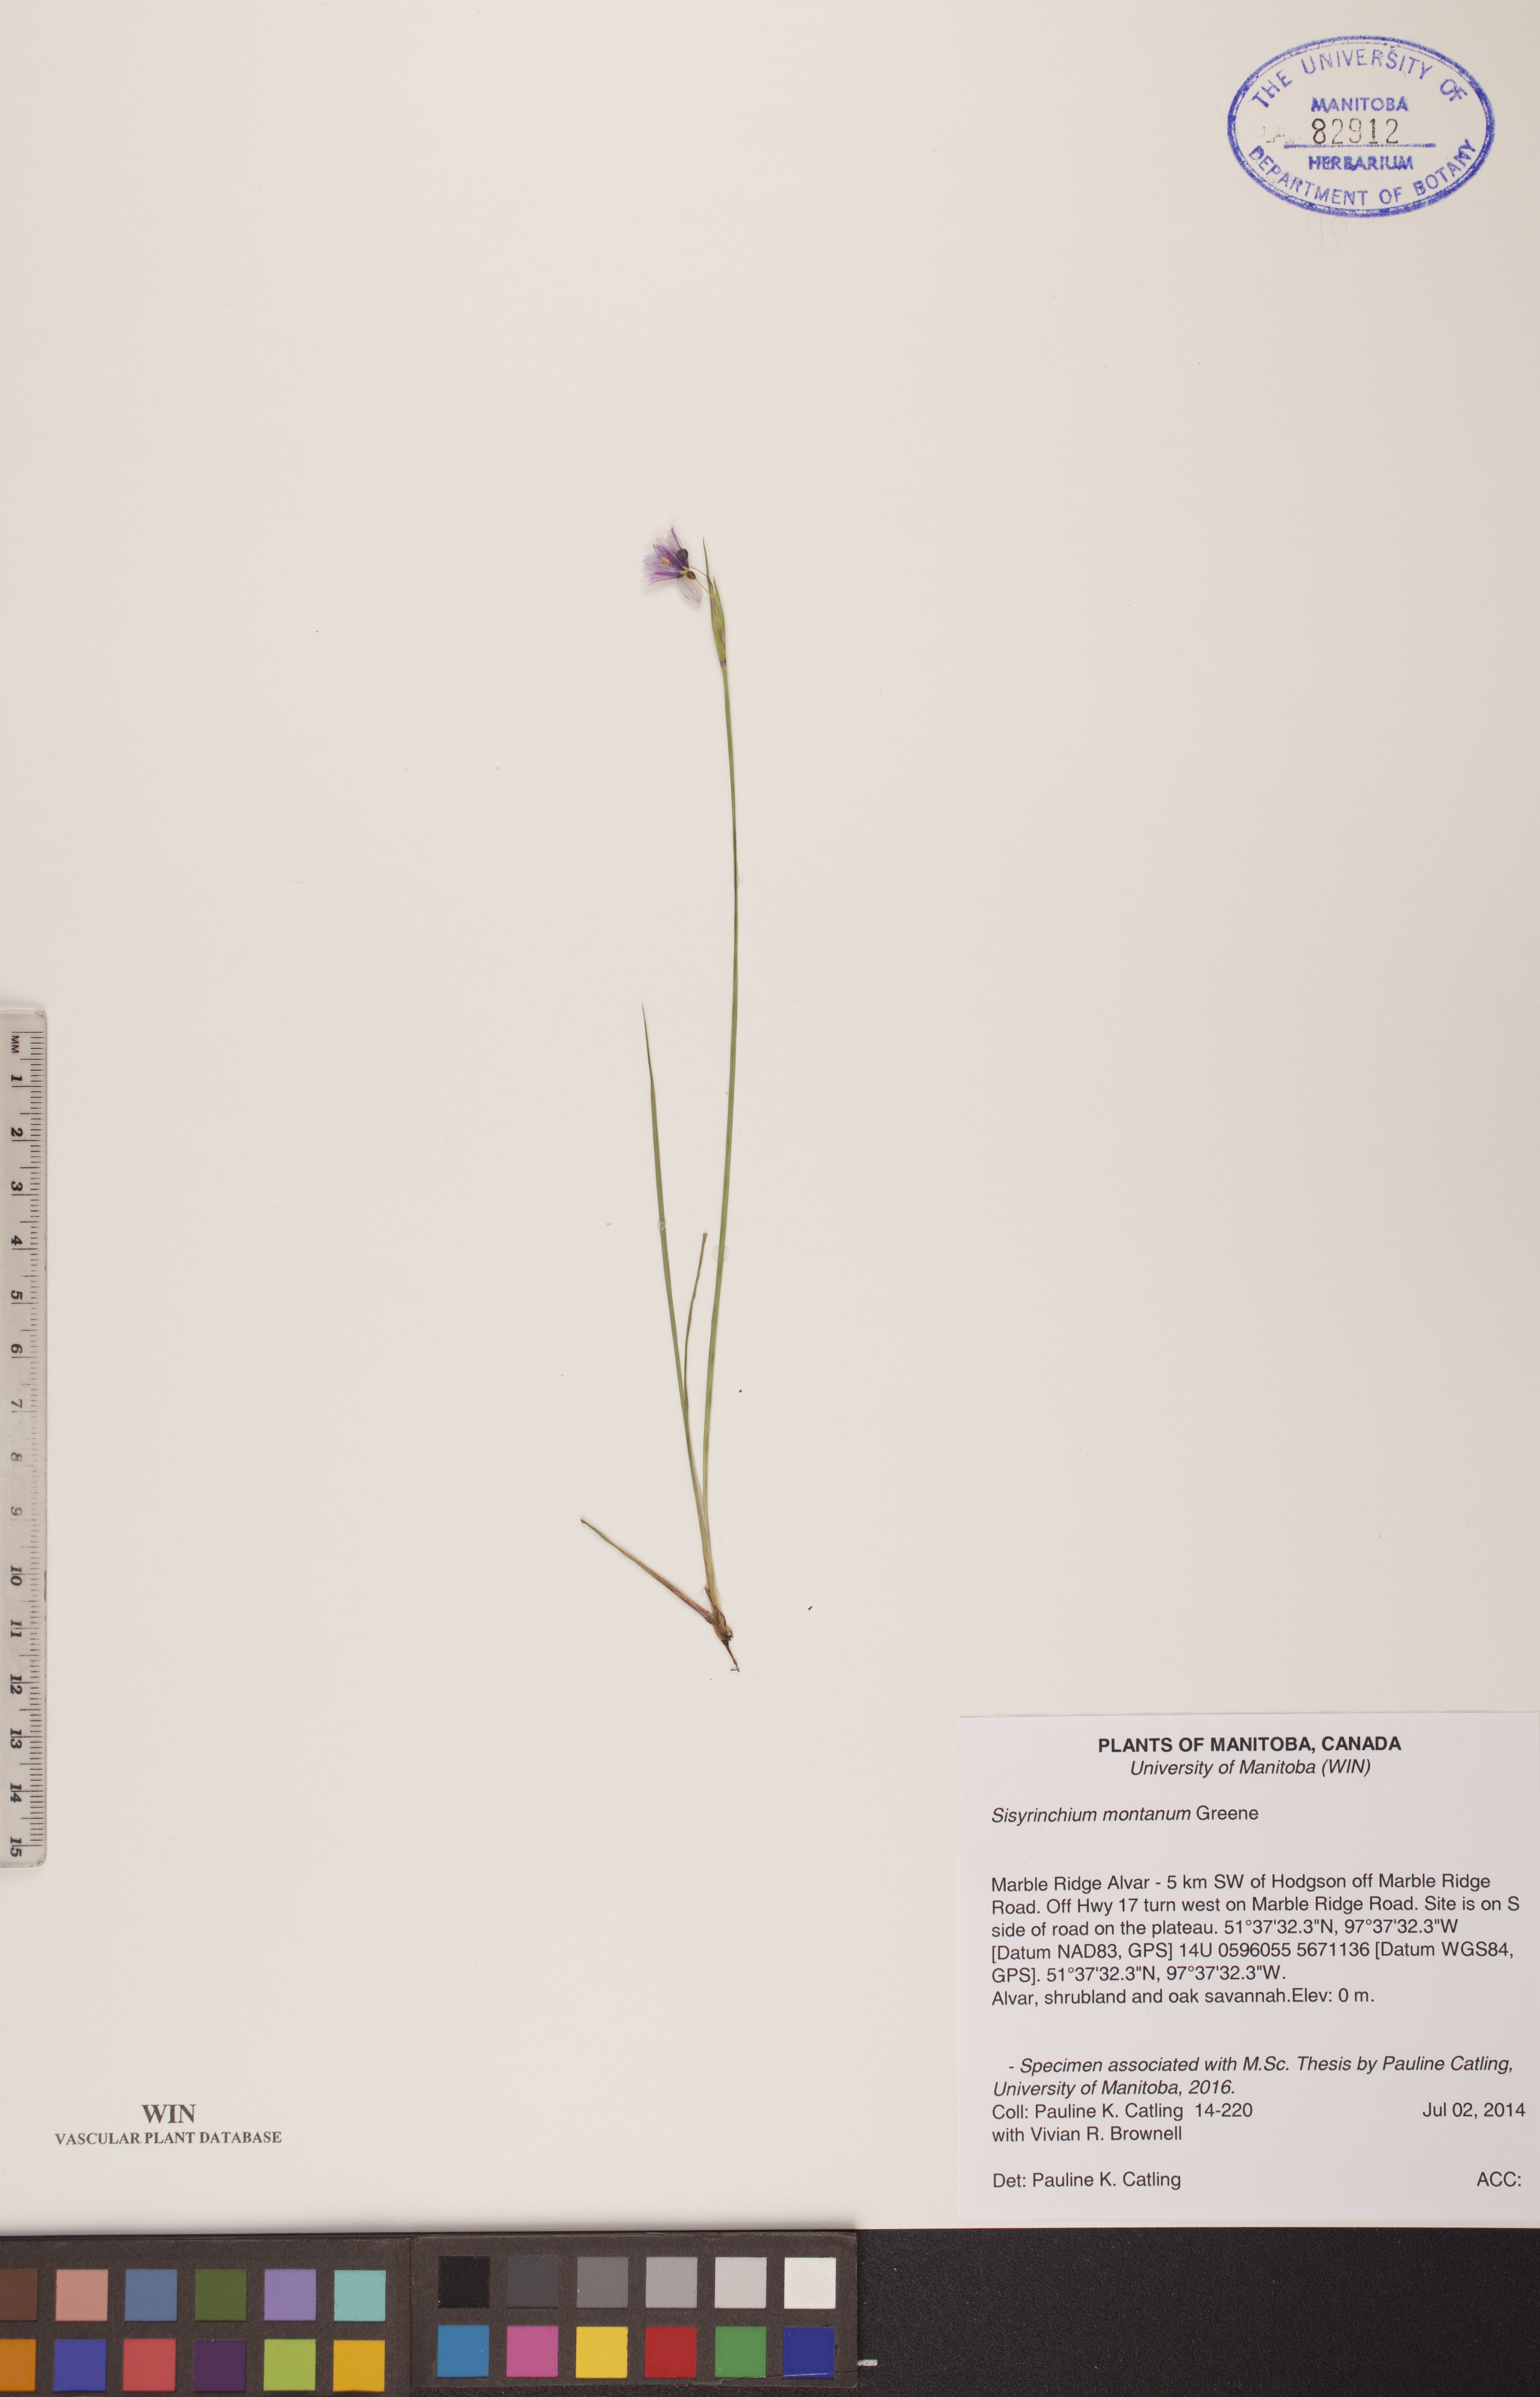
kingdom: Plantae
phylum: Tracheophyta
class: Liliopsida
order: Asparagales
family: Iridaceae
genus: Sisyrinchium
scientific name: Sisyrinchium montanum
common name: American blue-eyed-grass
